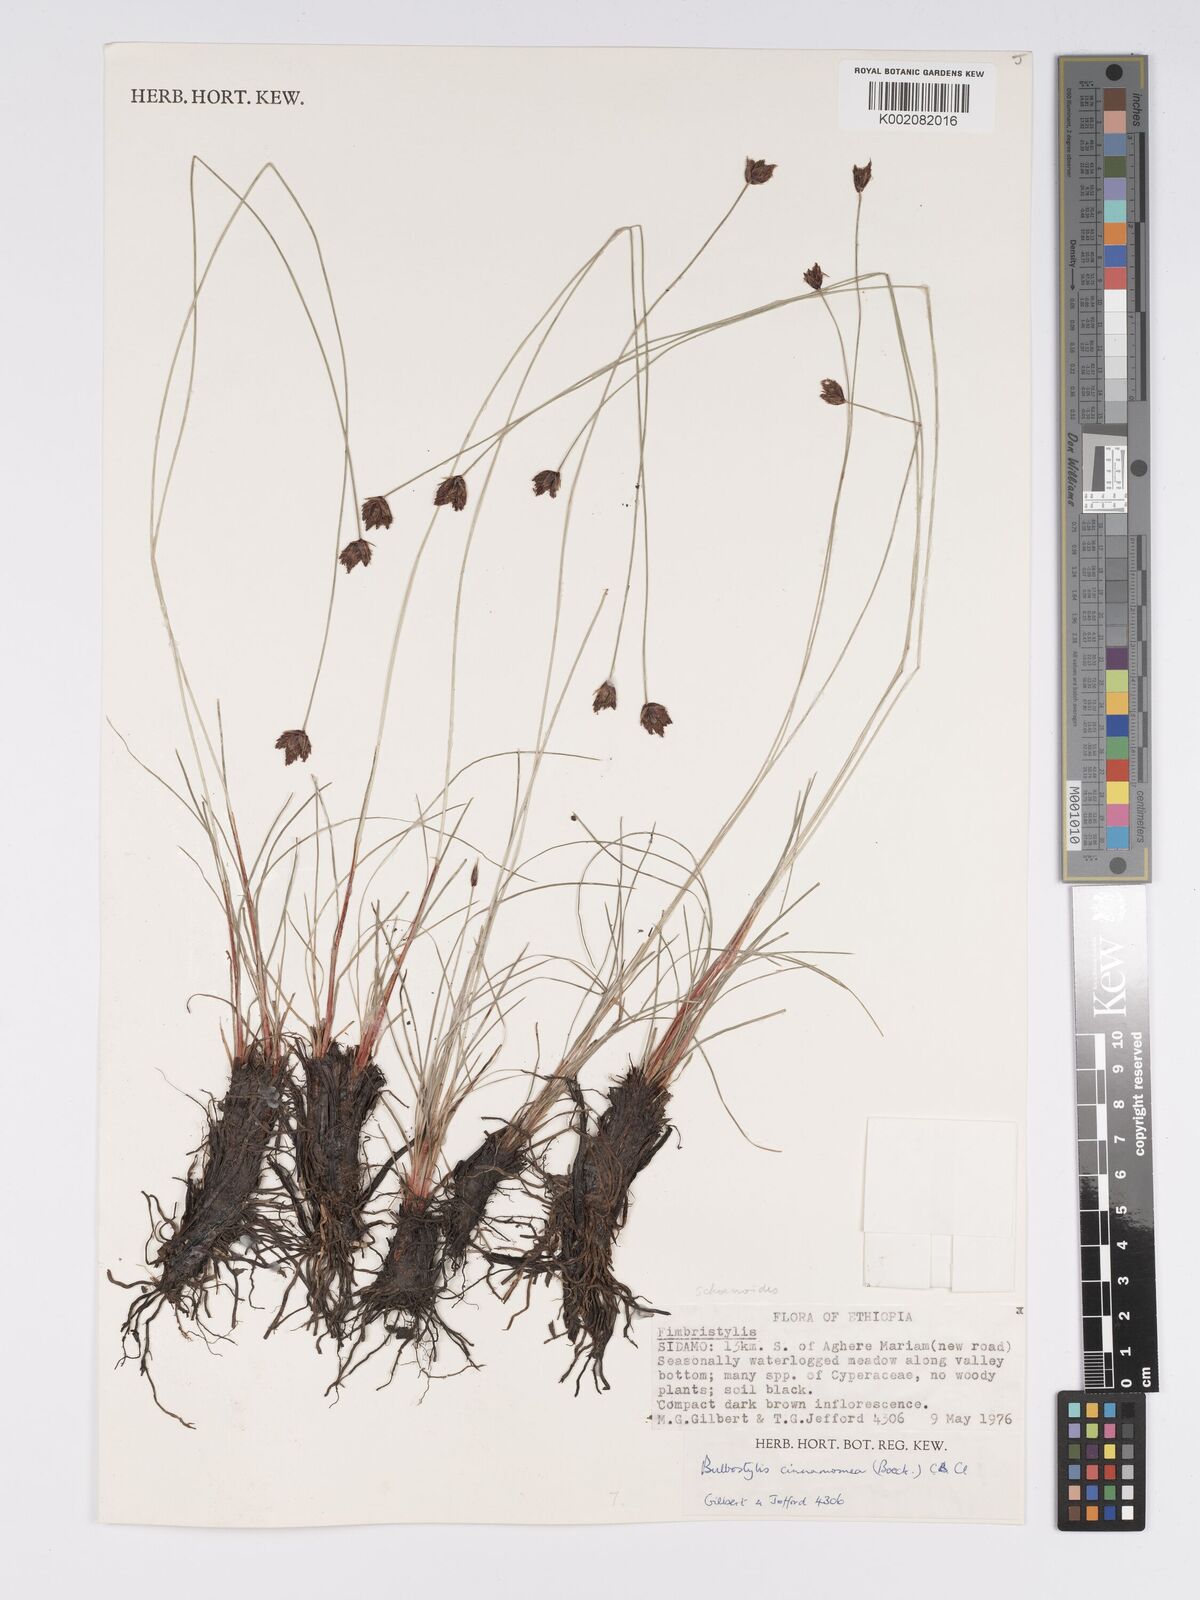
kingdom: Plantae
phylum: Tracheophyta
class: Liliopsida
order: Poales
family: Cyperaceae
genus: Bulbostylis
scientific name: Bulbostylis schoenoides
